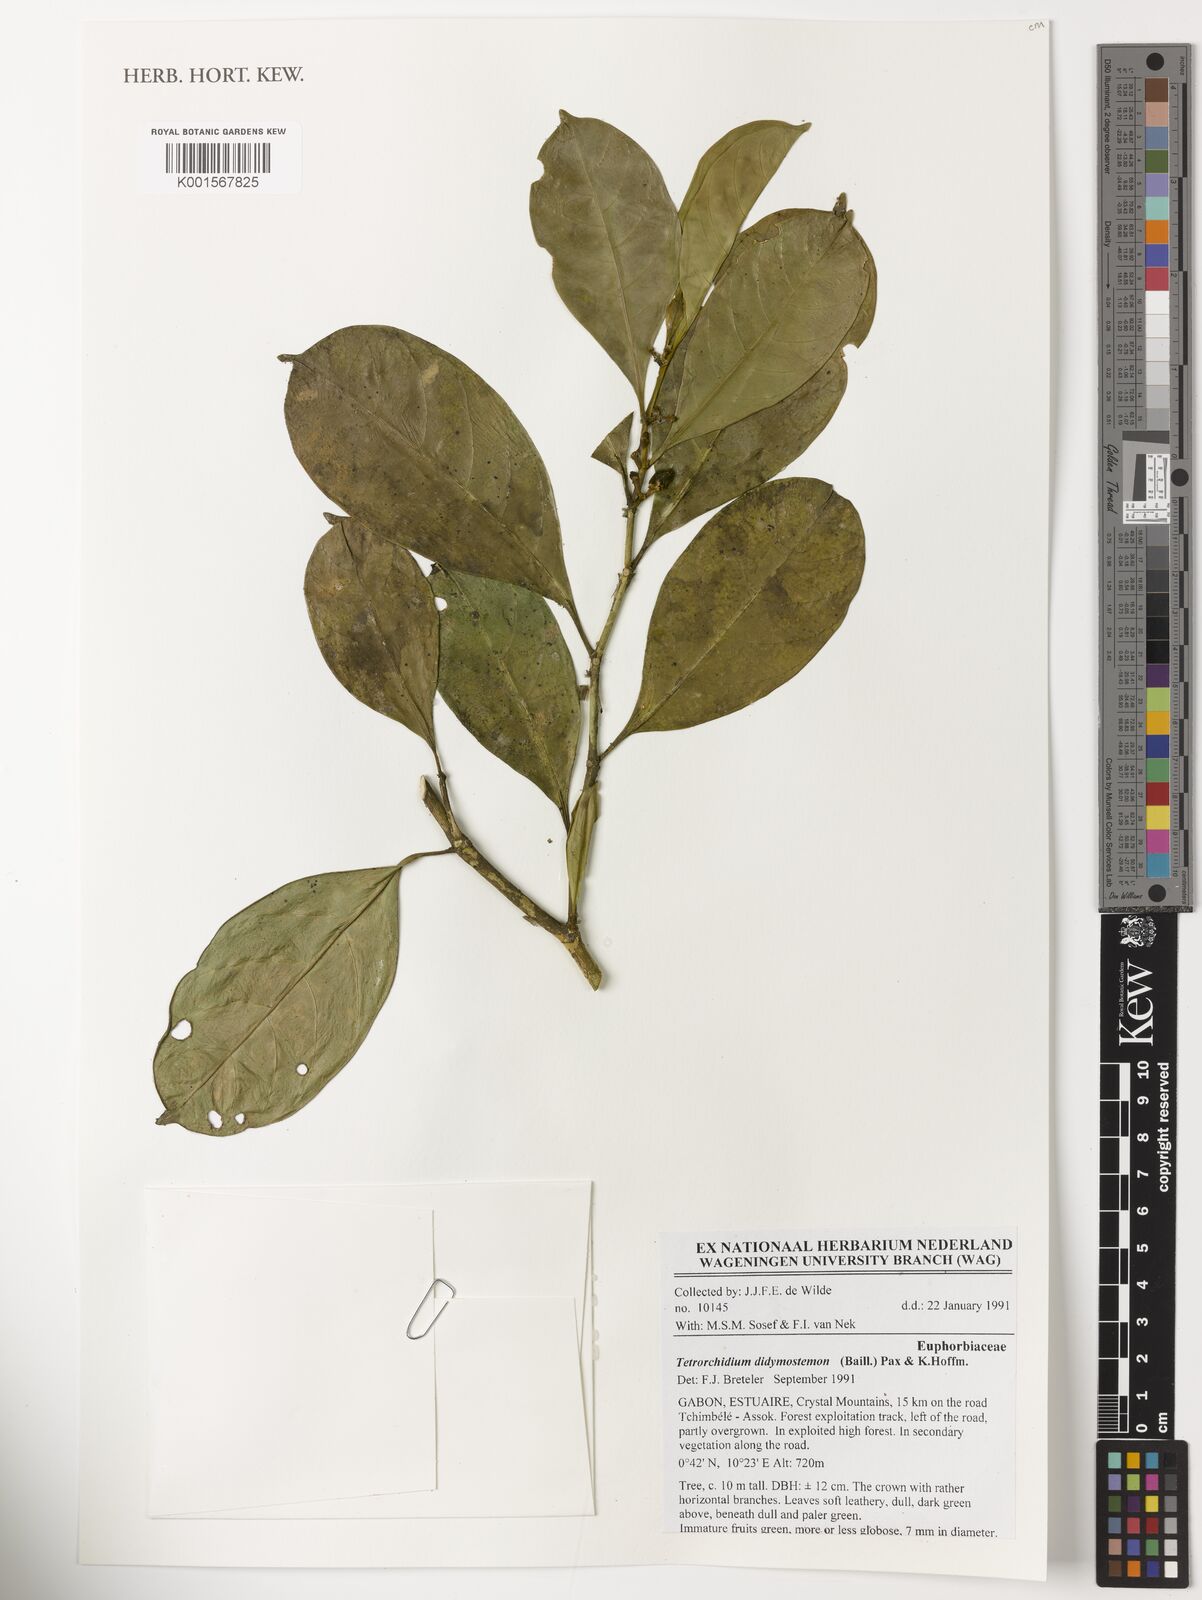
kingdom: Plantae
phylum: Tracheophyta
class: Magnoliopsida
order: Malpighiales
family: Euphorbiaceae
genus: Tetrorchidium
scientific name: Tetrorchidium didymostemon
